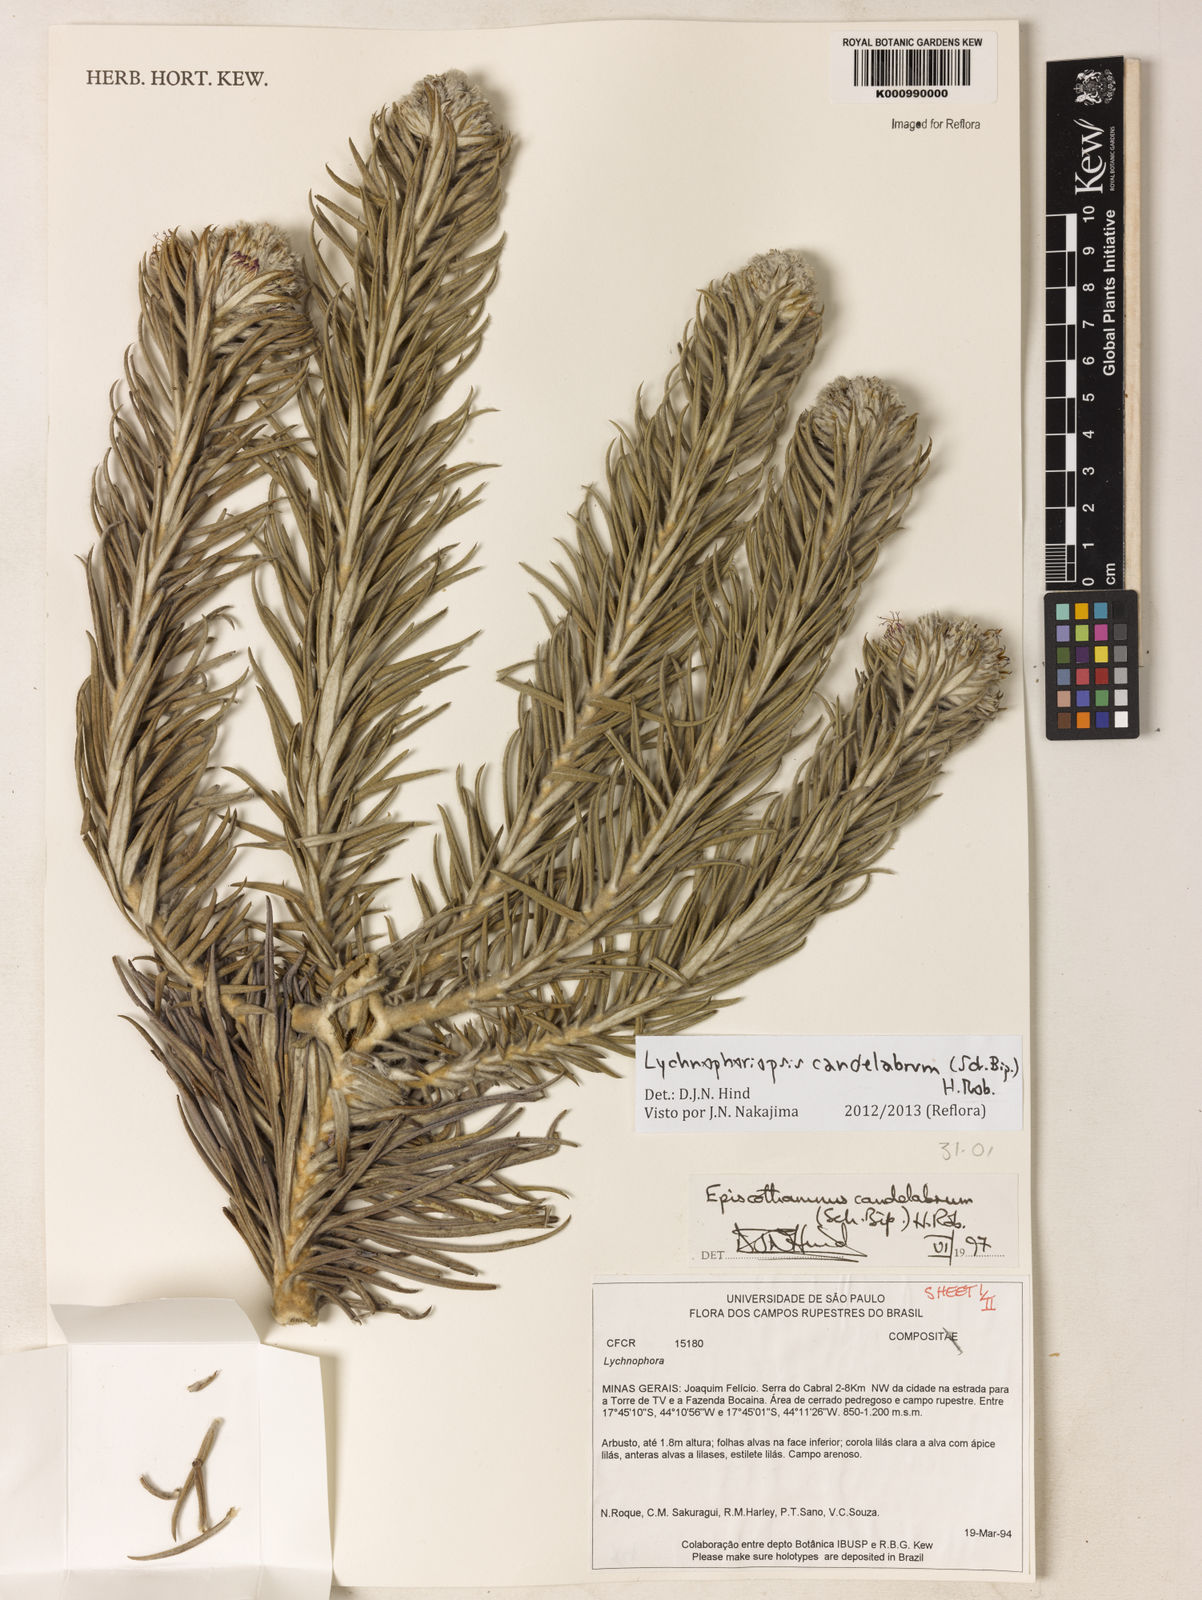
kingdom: Plantae
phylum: Tracheophyta
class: Magnoliopsida
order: Asterales
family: Asteraceae
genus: Lychnophora
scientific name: Lychnophora candelabrum
